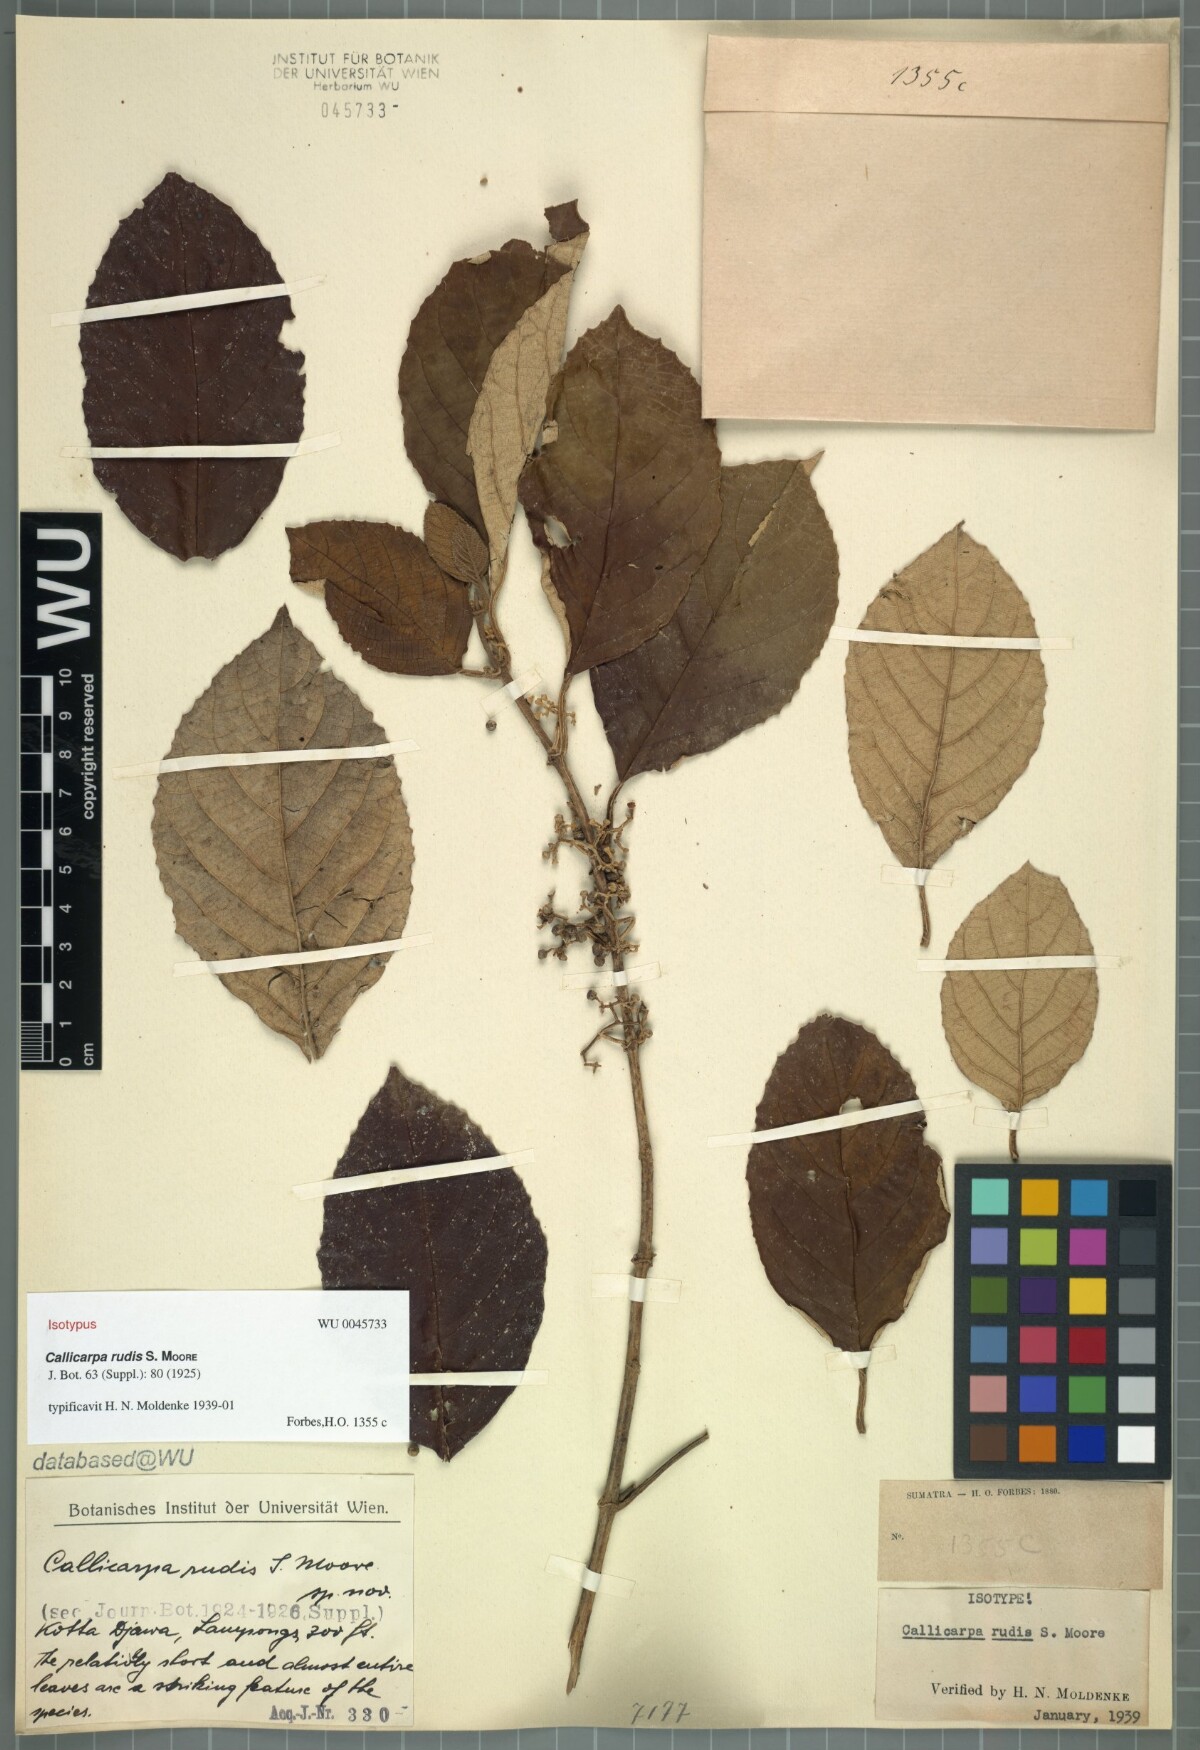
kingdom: Plantae
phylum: Tracheophyta
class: Magnoliopsida
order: Lamiales
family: Lamiaceae
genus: Callicarpa
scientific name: Callicarpa furfuracea
